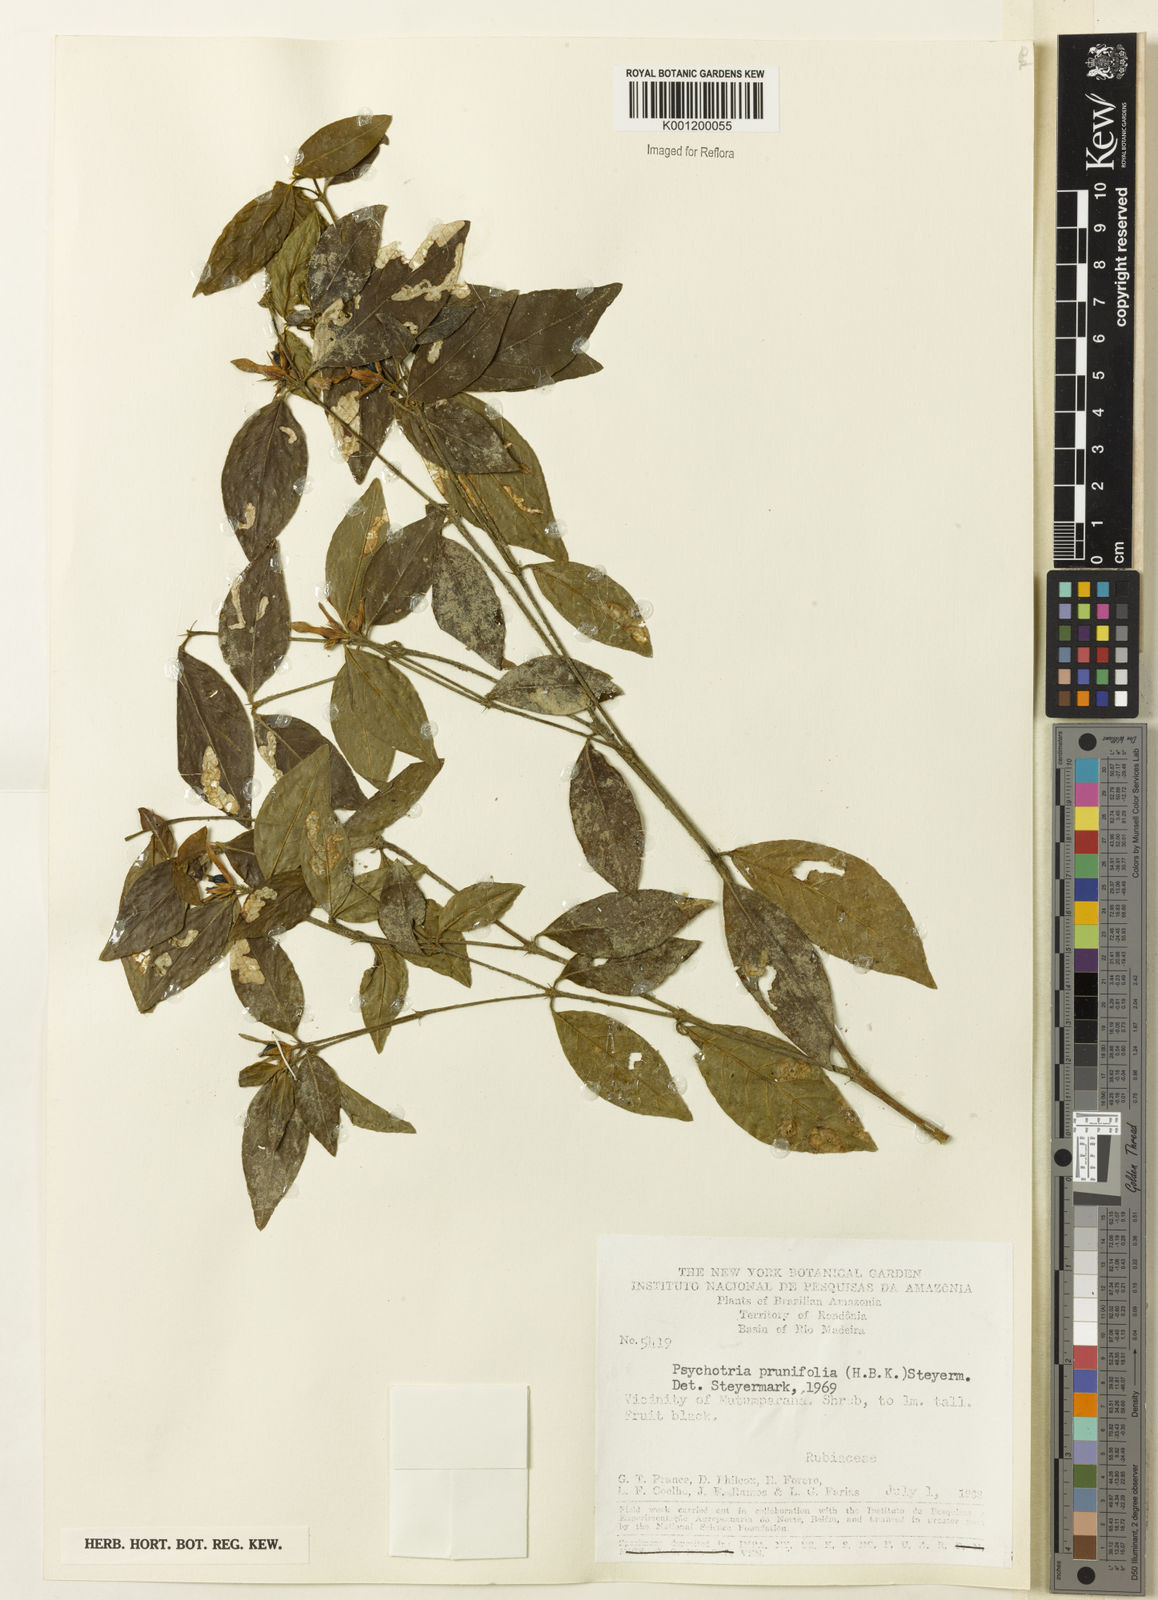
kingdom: Plantae
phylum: Tracheophyta
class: Magnoliopsida
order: Gentianales
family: Rubiaceae
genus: Palicourea
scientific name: Palicourea prunifolia
